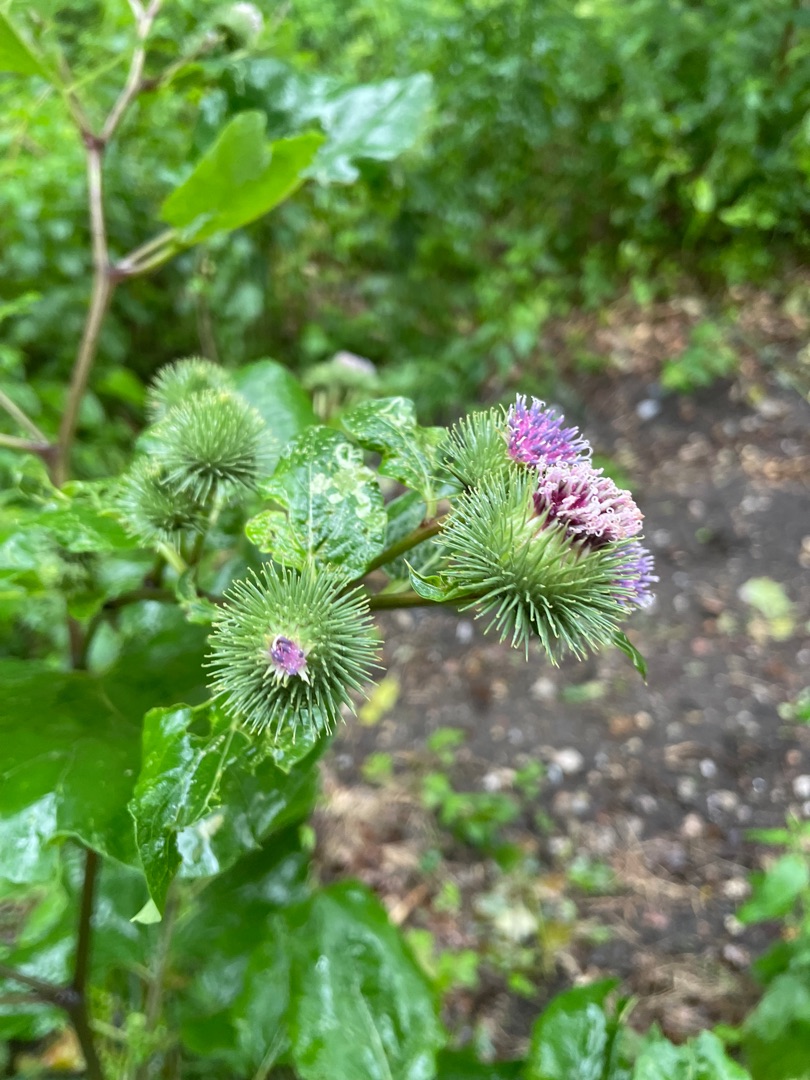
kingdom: Plantae
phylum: Tracheophyta
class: Magnoliopsida
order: Asterales
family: Asteraceae
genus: Arctium
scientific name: Arctium lappa
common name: Glat burre
